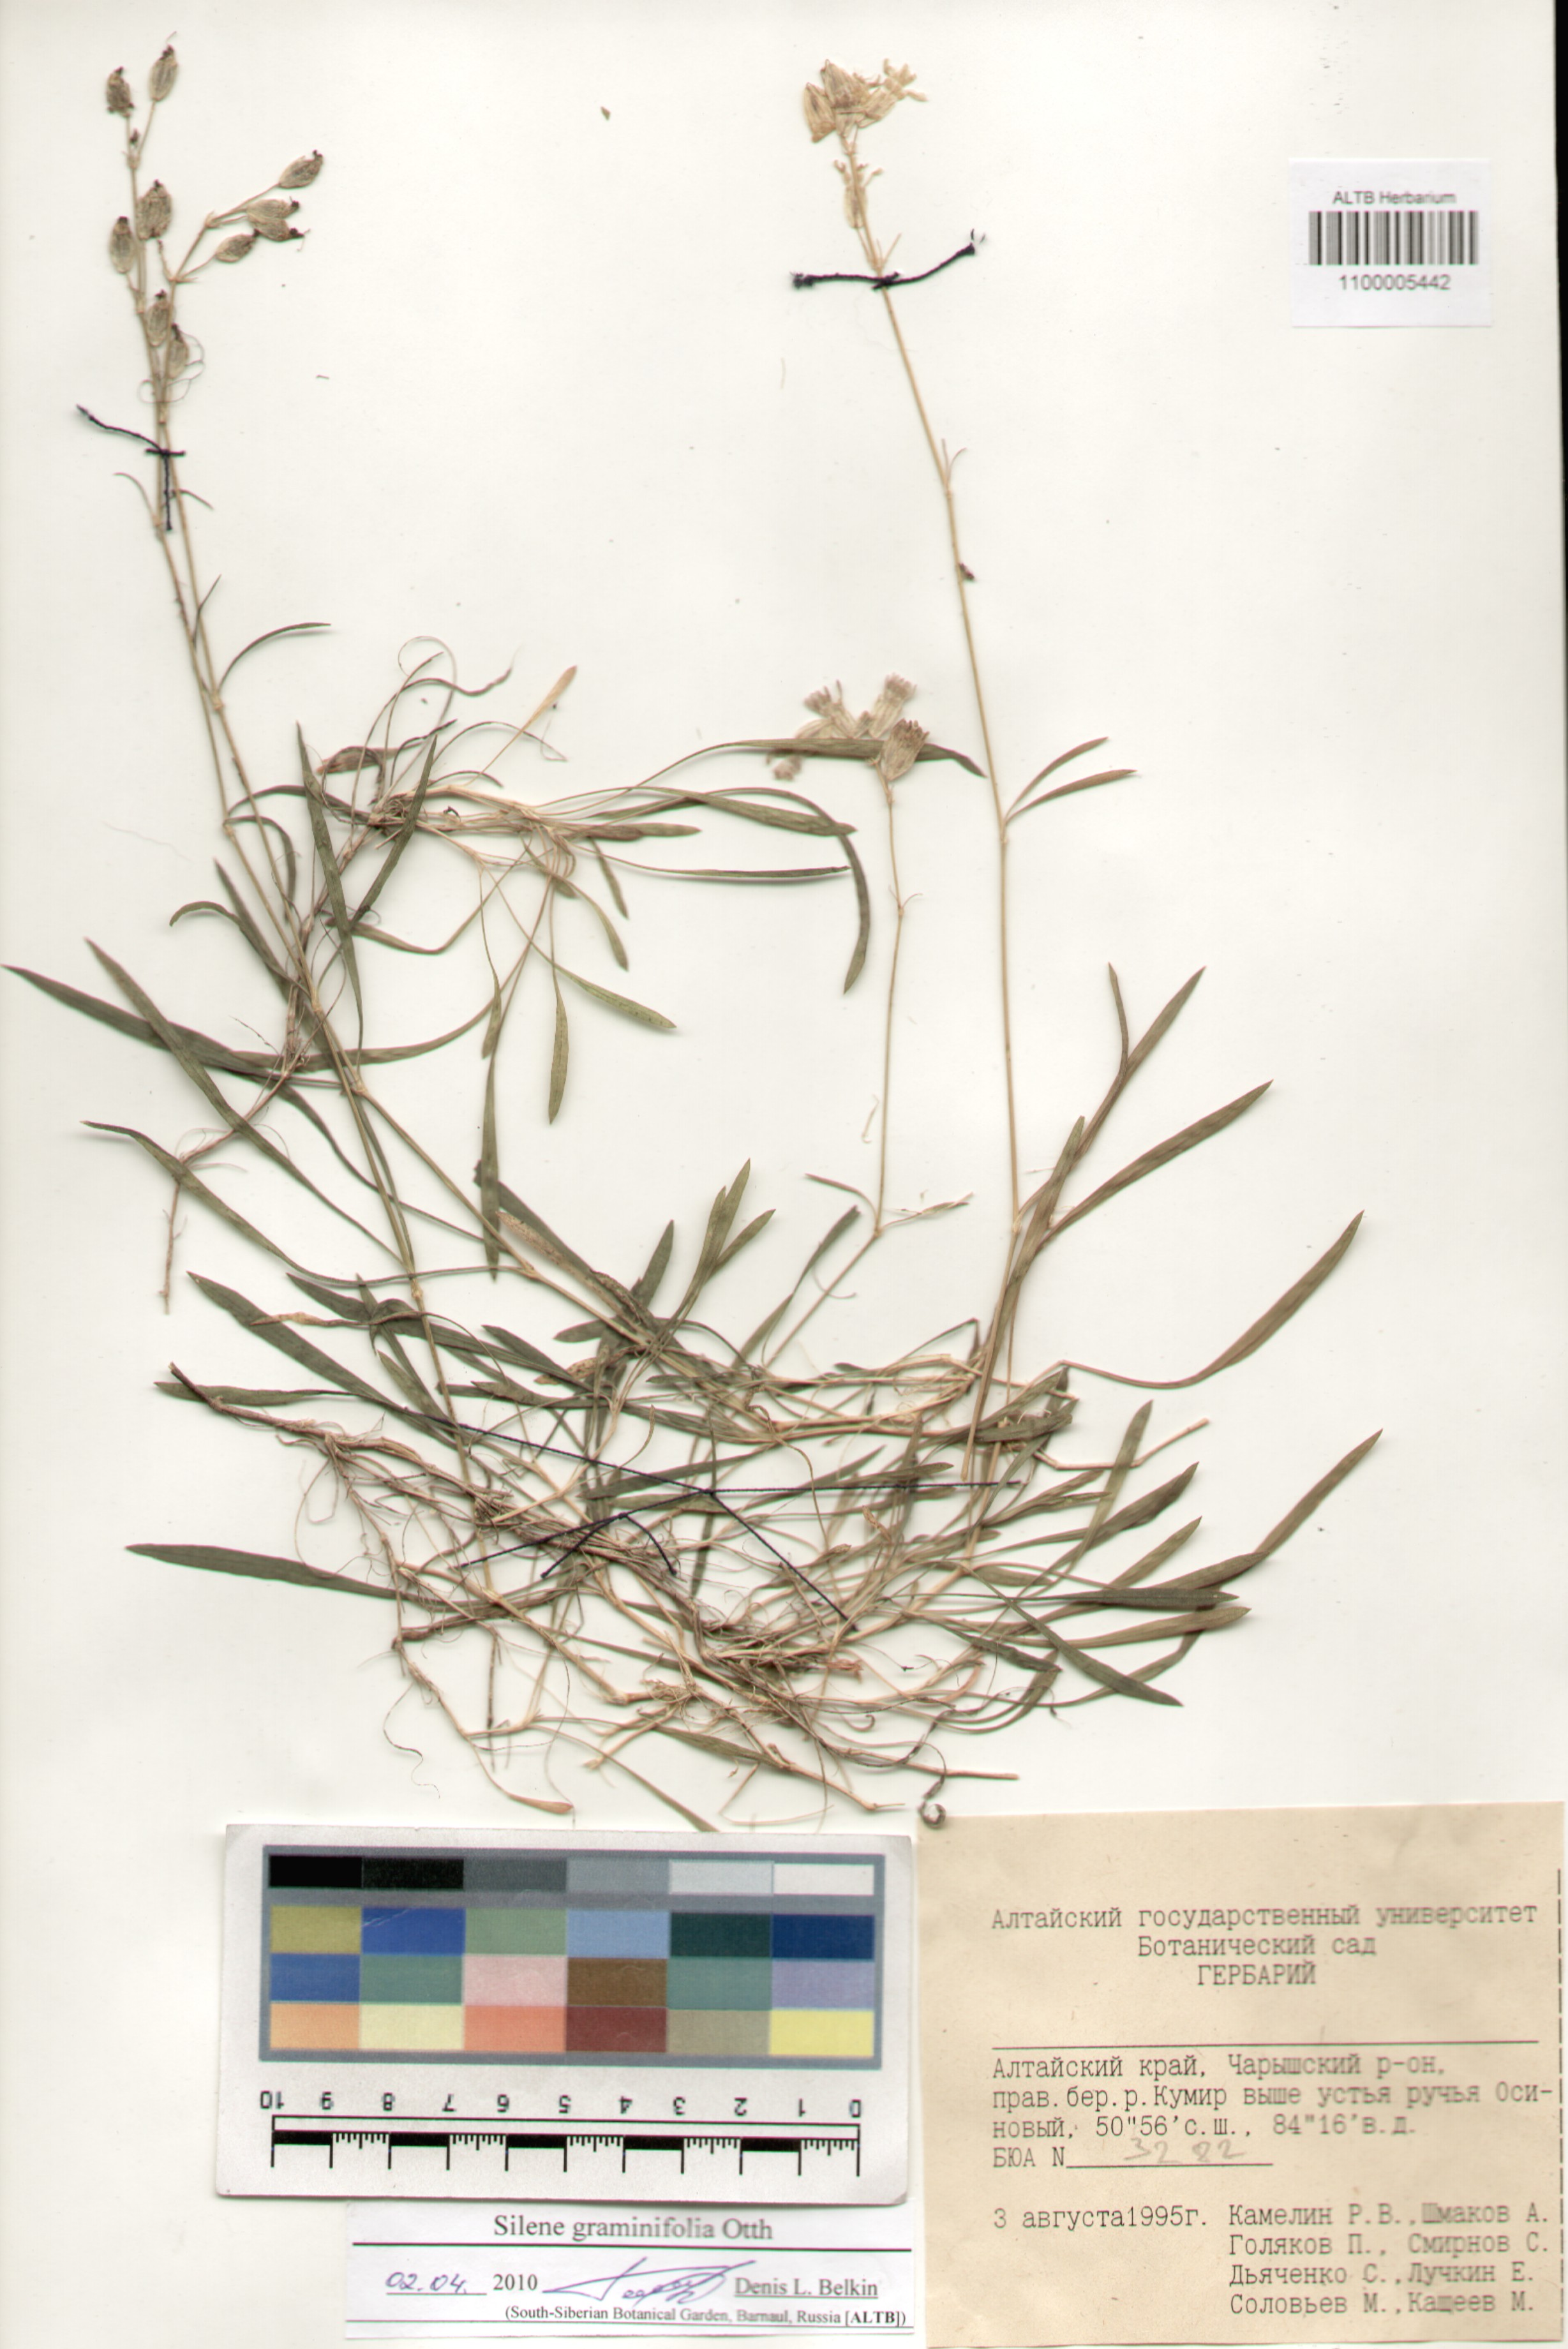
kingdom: Plantae
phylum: Tracheophyta
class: Magnoliopsida
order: Caryophyllales
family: Caryophyllaceae
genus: Silene
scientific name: Silene graminifolia
